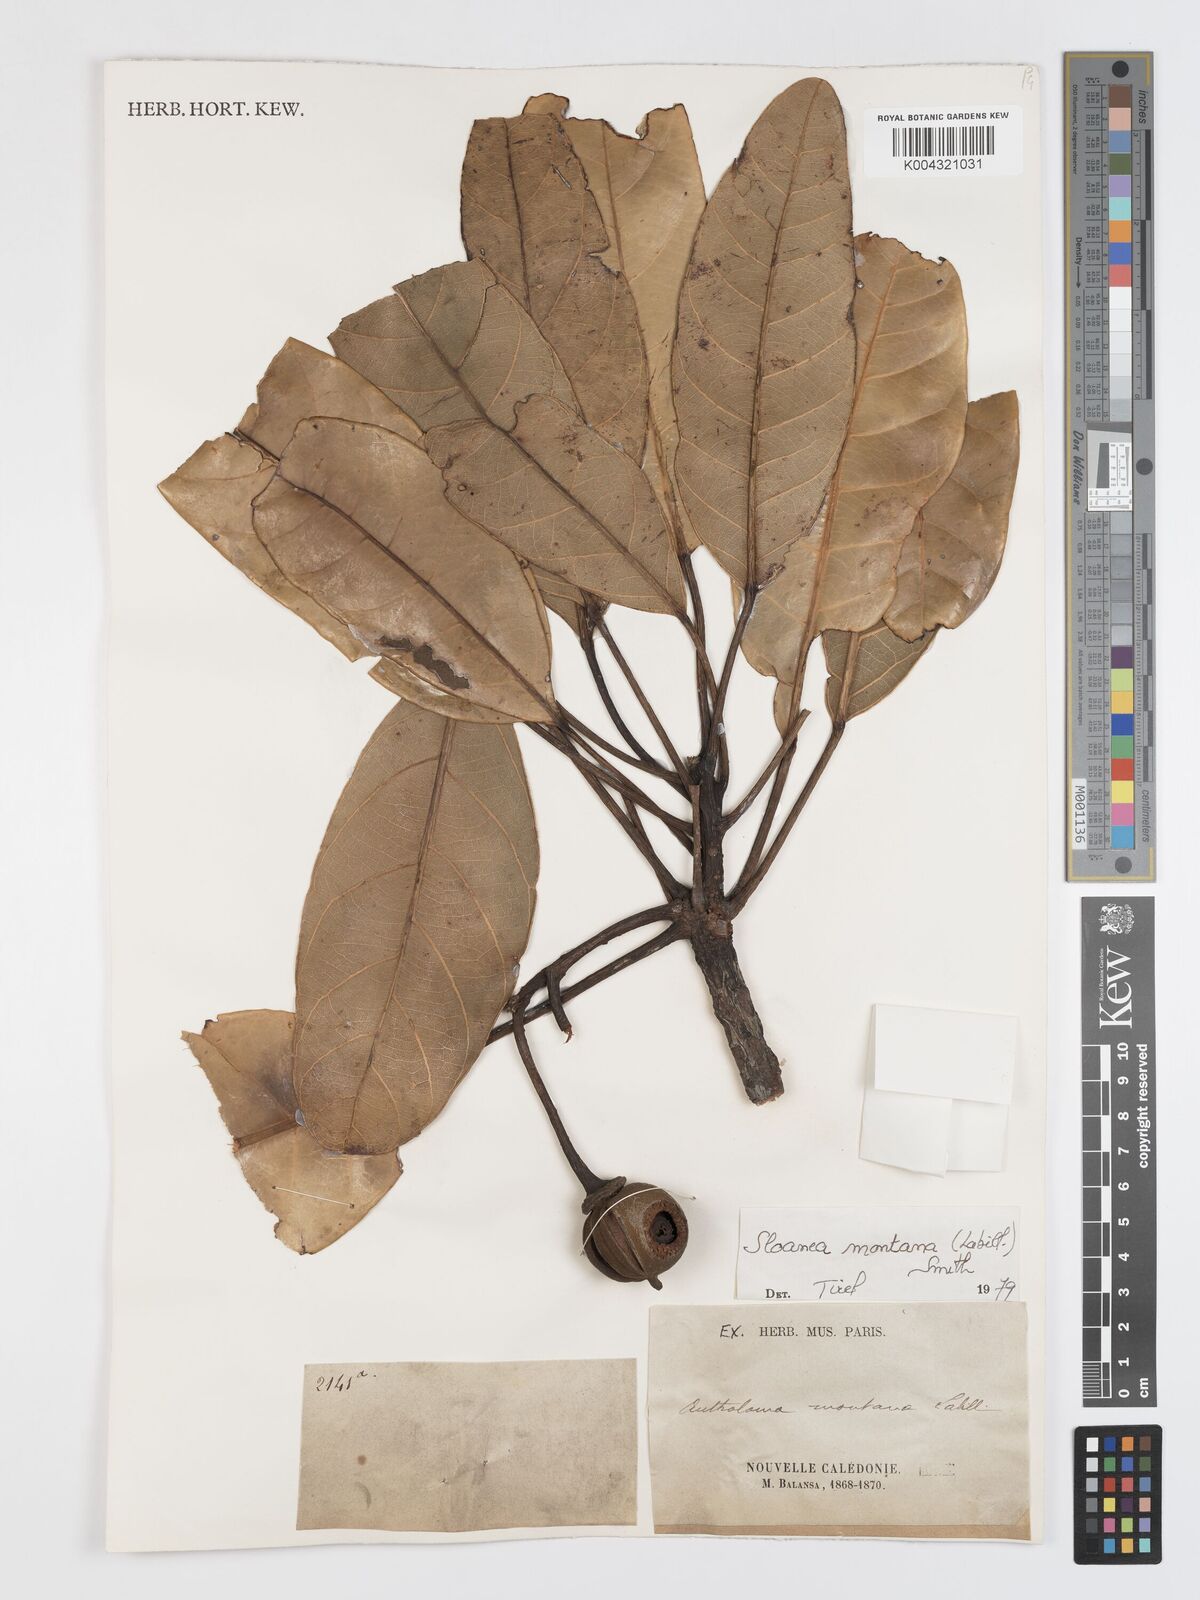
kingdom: Plantae
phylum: Tracheophyta
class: Magnoliopsida
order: Oxalidales
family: Elaeocarpaceae
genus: Sloanea
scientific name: Sloanea montana
